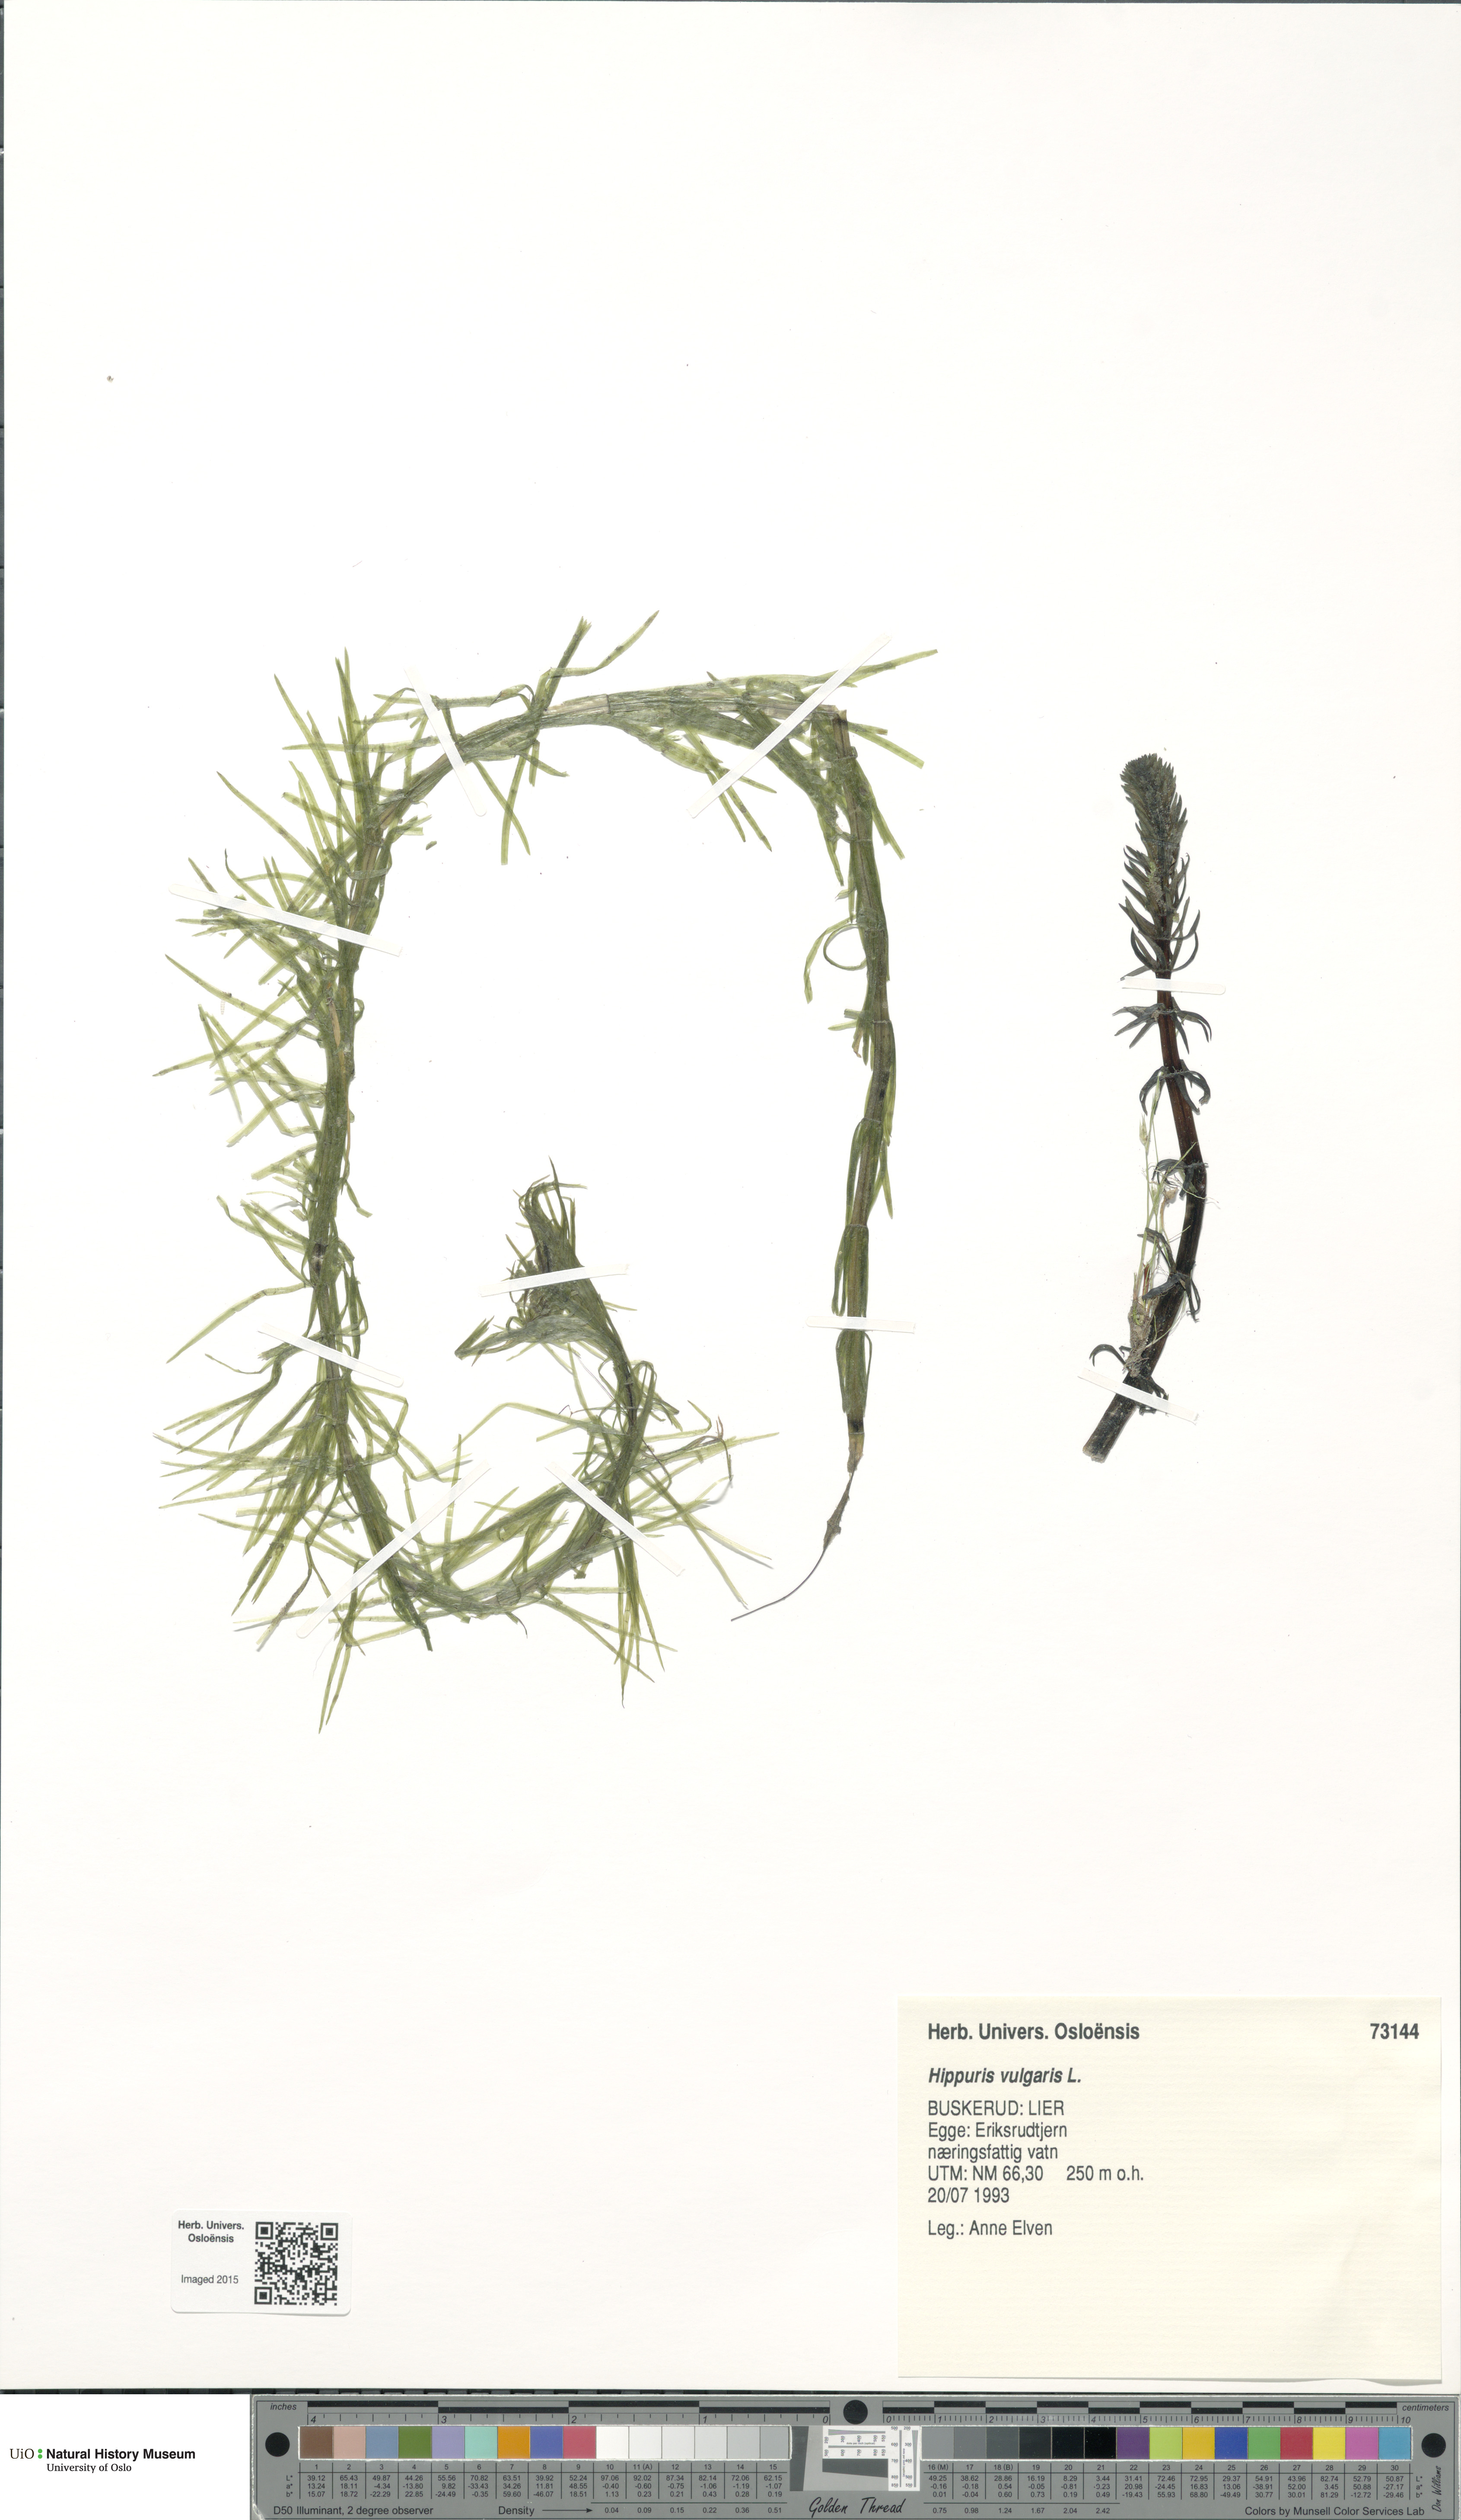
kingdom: Plantae
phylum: Tracheophyta
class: Magnoliopsida
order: Lamiales
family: Plantaginaceae
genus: Hippuris
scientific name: Hippuris vulgaris
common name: Mare's-tail
